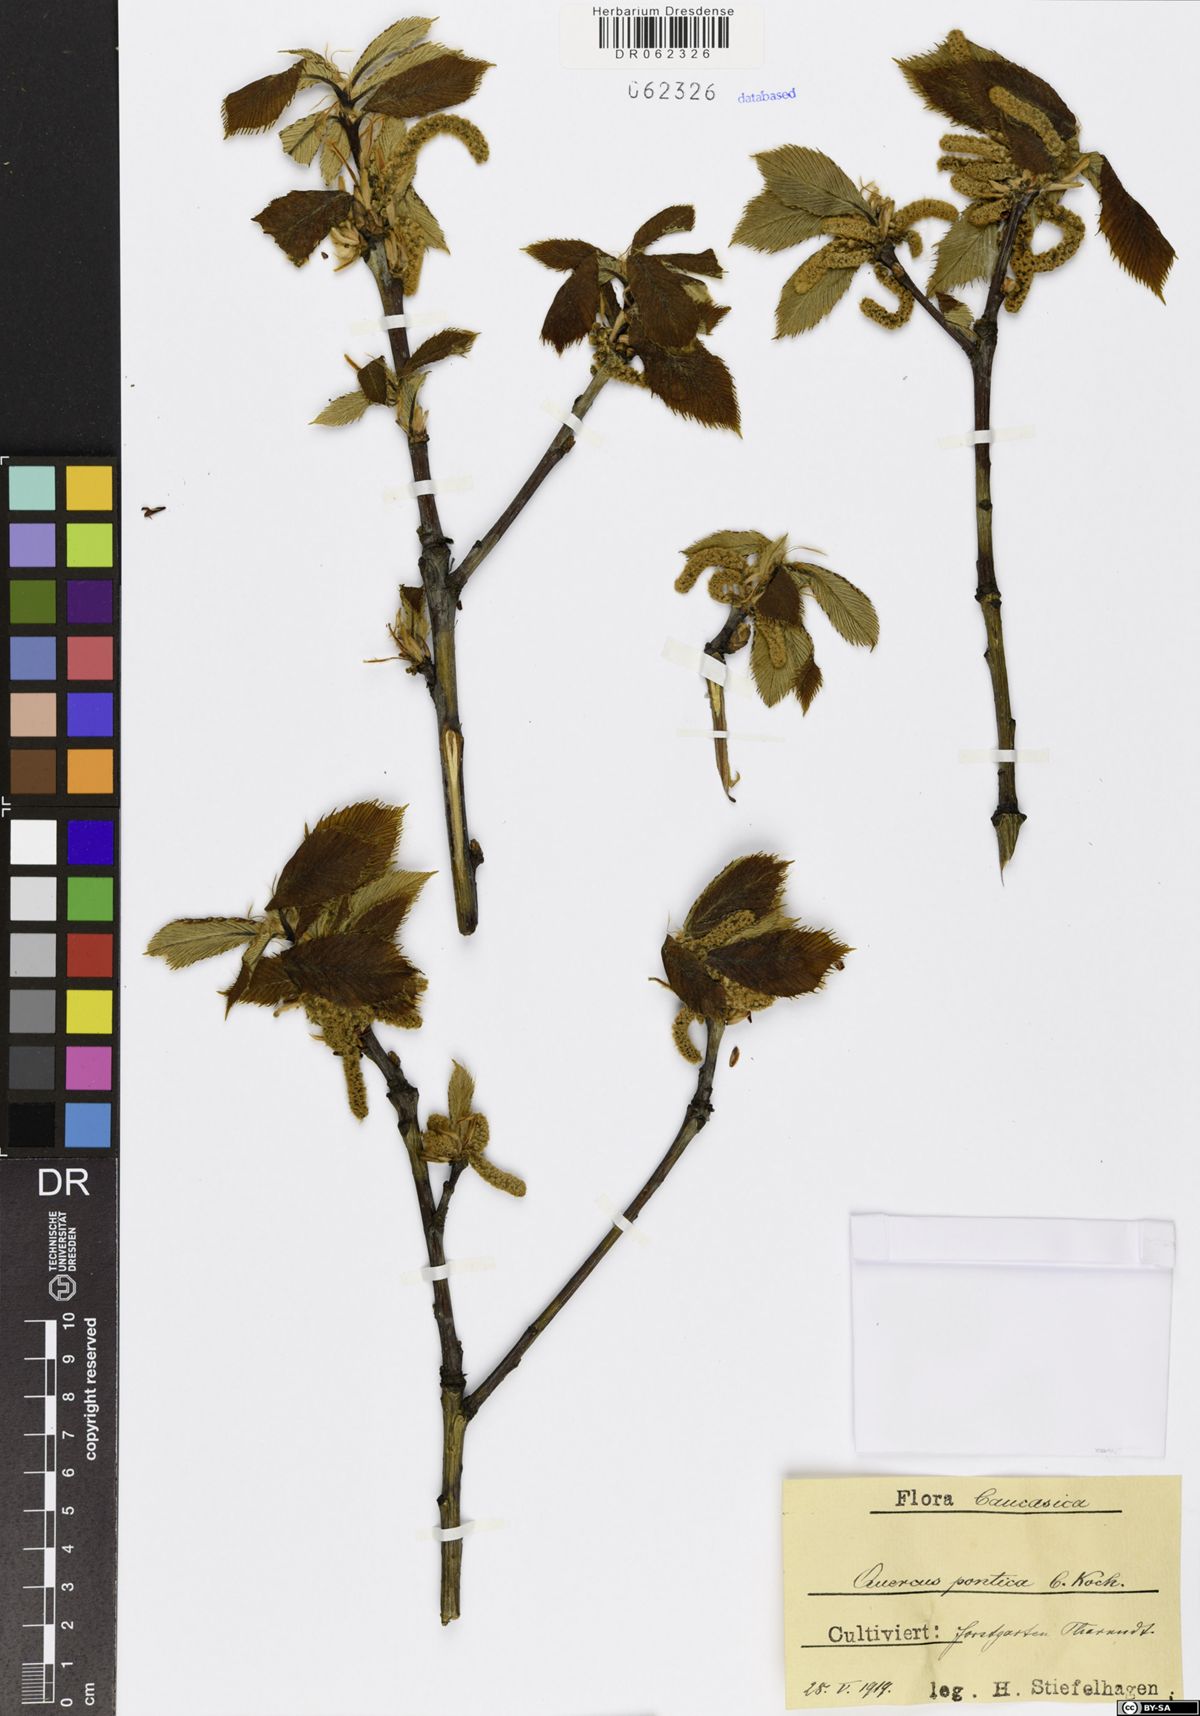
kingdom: Plantae
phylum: Tracheophyta
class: Magnoliopsida
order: Fagales
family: Fagaceae
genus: Quercus
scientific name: Quercus pontica
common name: Armenian oak
